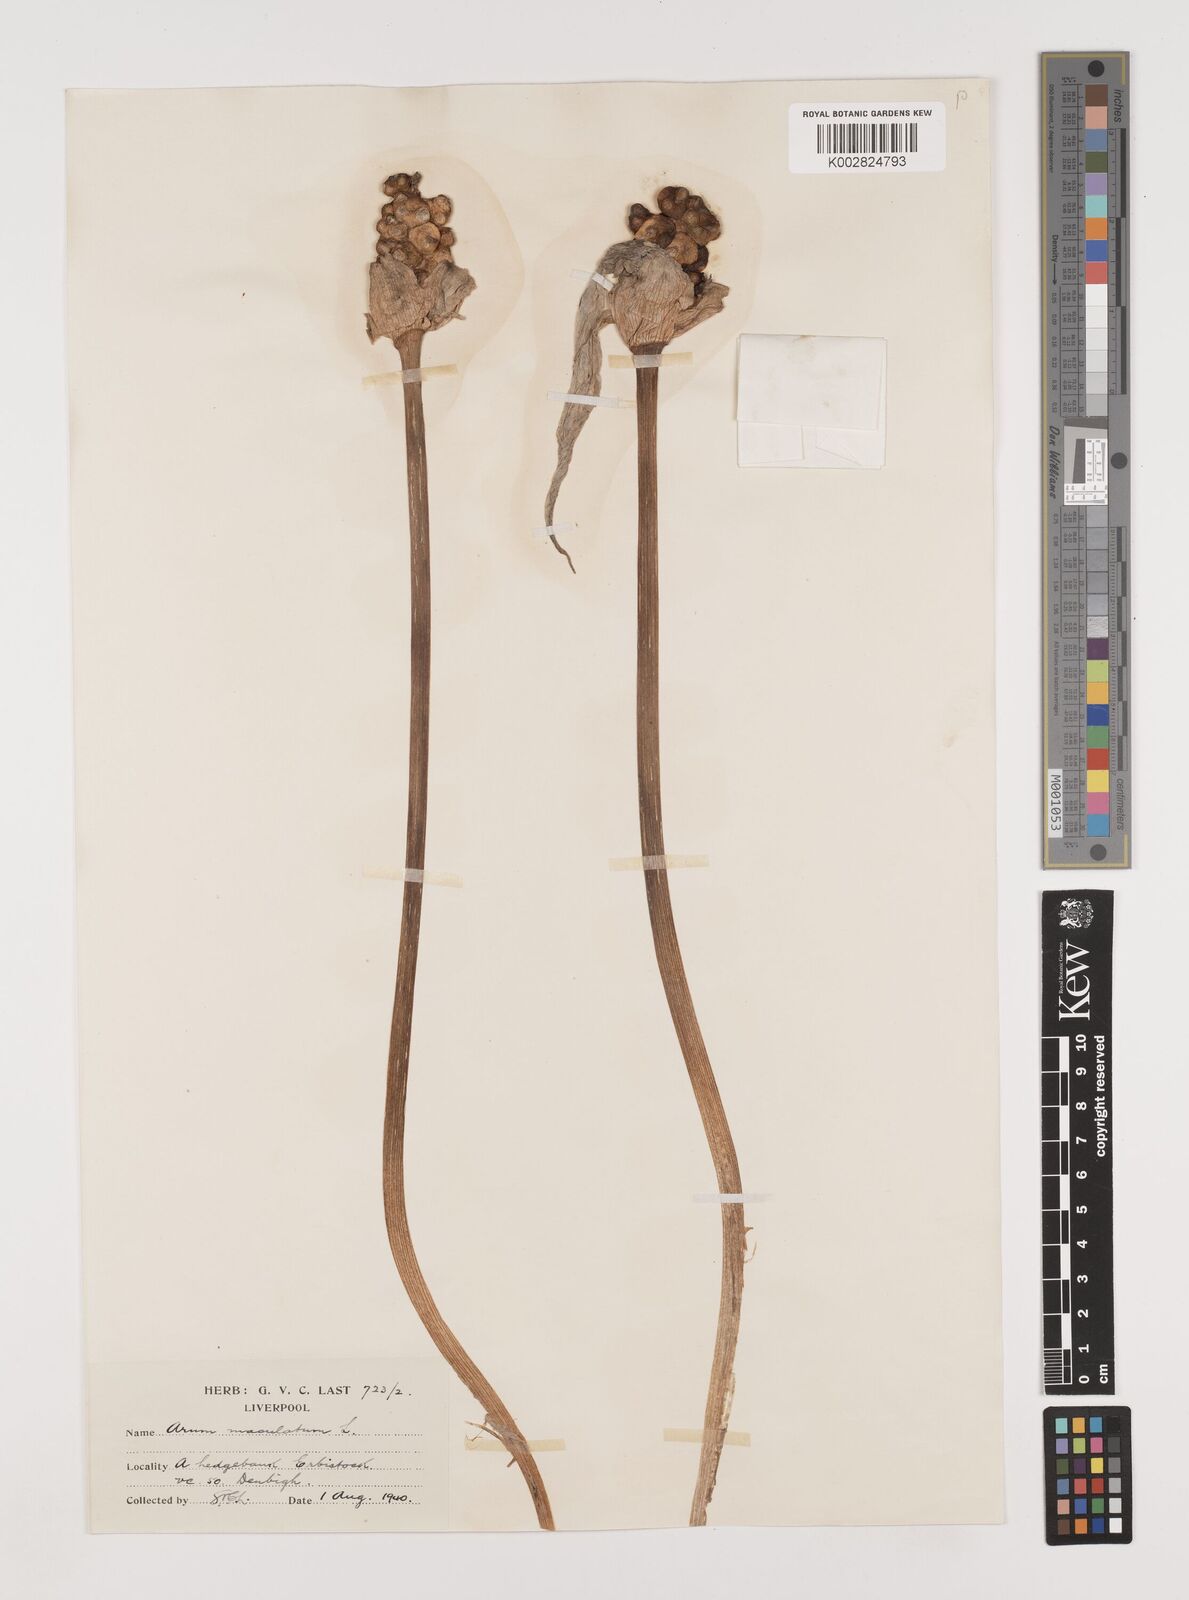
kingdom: Plantae
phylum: Tracheophyta
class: Liliopsida
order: Alismatales
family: Araceae
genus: Arum
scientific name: Arum maculatum
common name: Lords-and-ladies
